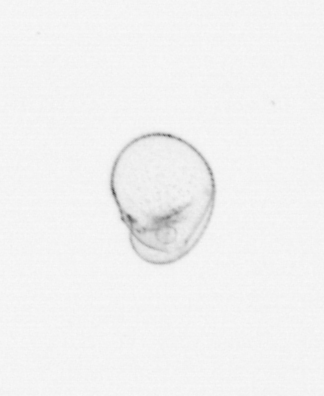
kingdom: Chromista
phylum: Myzozoa
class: Dinophyceae
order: Noctilucales
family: Noctilucaceae
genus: Noctiluca
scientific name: Noctiluca scintillans
